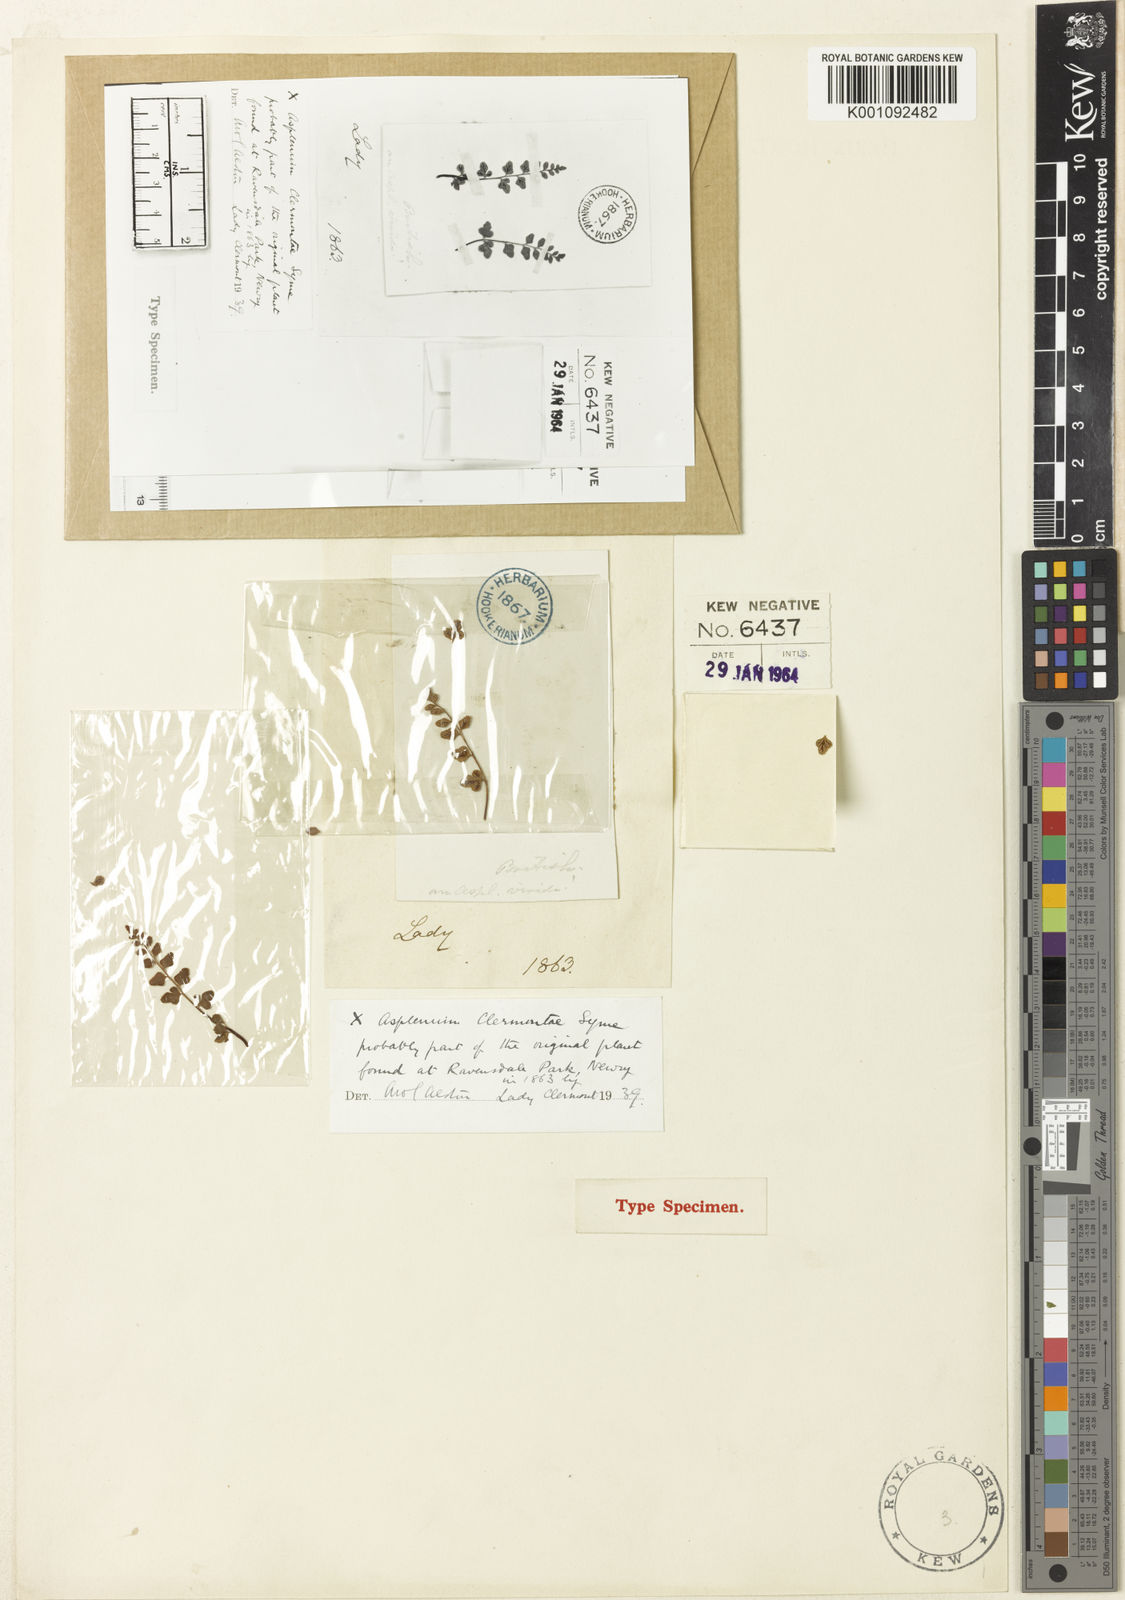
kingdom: Plantae
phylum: Tracheophyta
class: Polypodiopsida
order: Polypodiales
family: Aspleniaceae
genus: Asplenium
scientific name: Asplenium ruta-muraria
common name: Wall-rue
